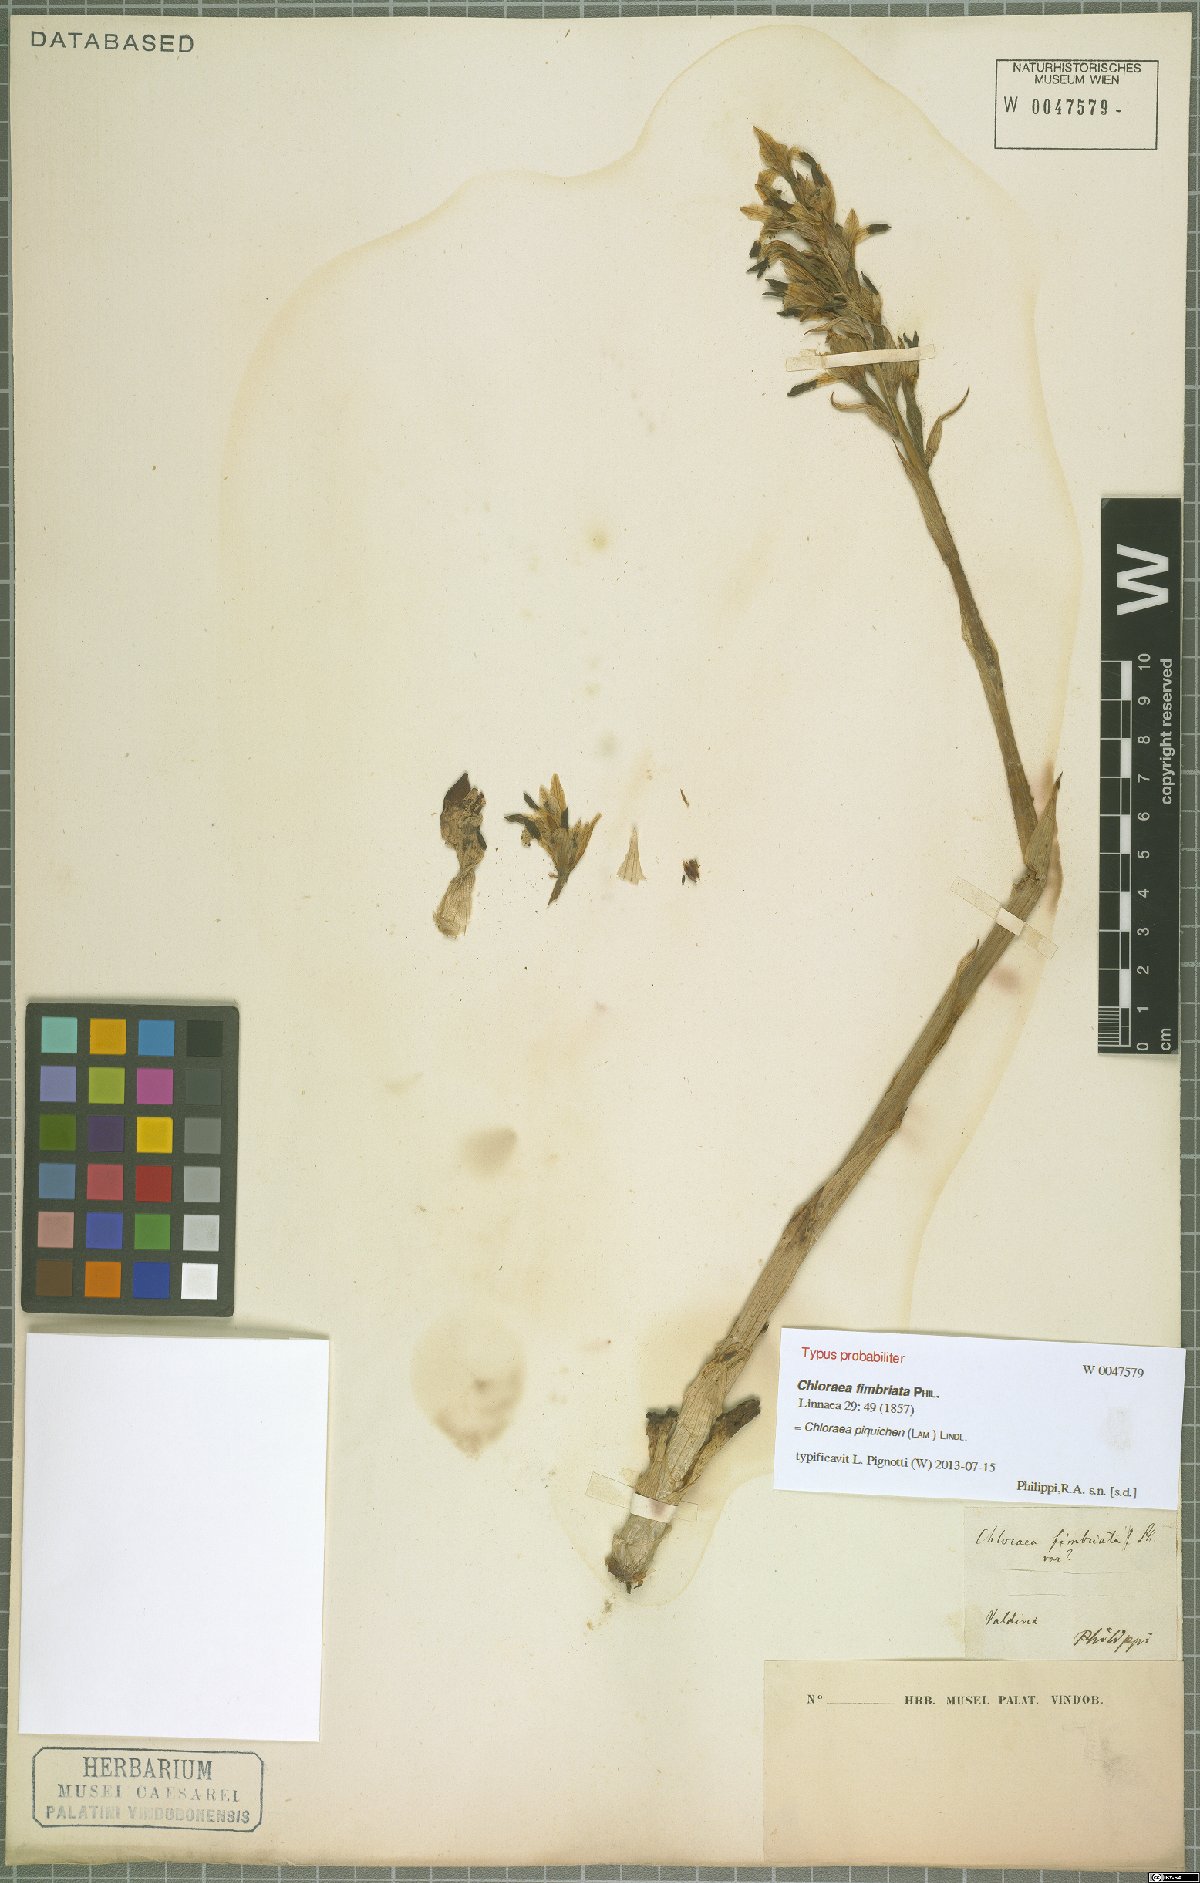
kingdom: Plantae
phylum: Tracheophyta
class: Liliopsida
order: Asparagales
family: Orchidaceae
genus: Chloraea
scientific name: Chloraea piquichen
